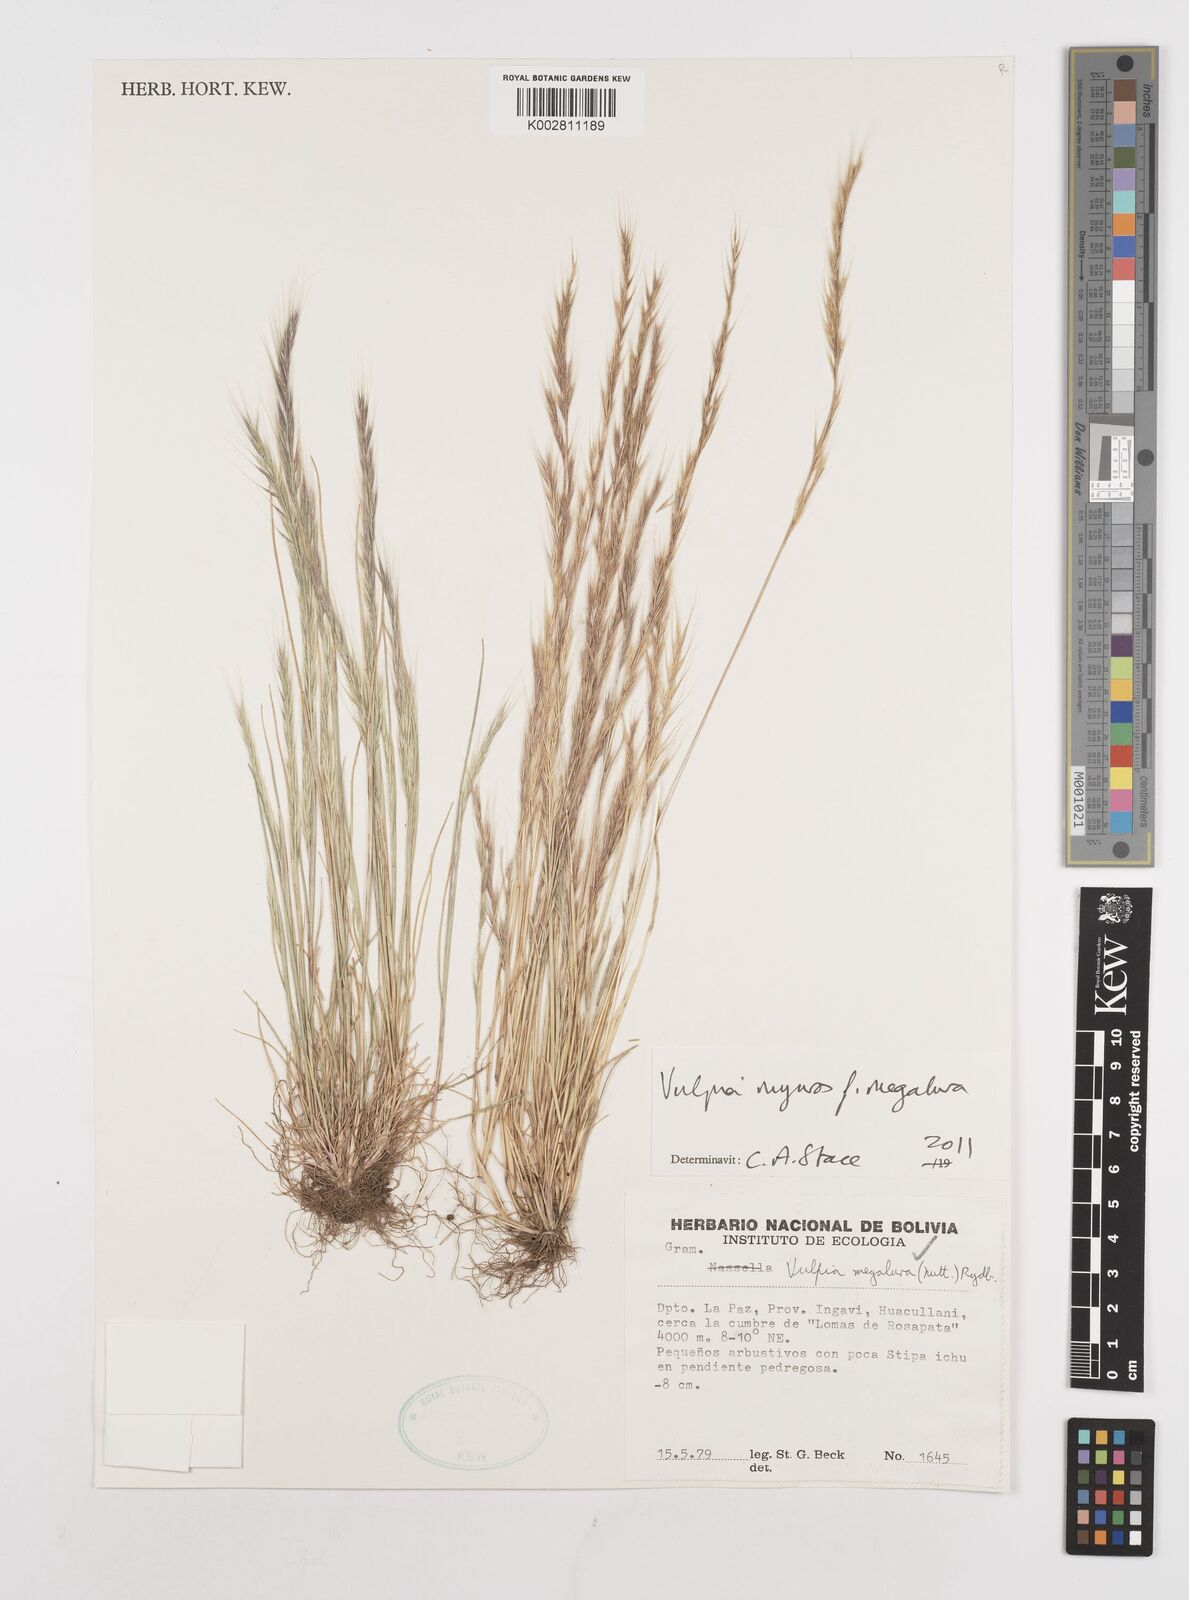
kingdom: Plantae
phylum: Tracheophyta
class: Liliopsida
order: Poales
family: Poaceae
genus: Festuca
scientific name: Festuca myuros
